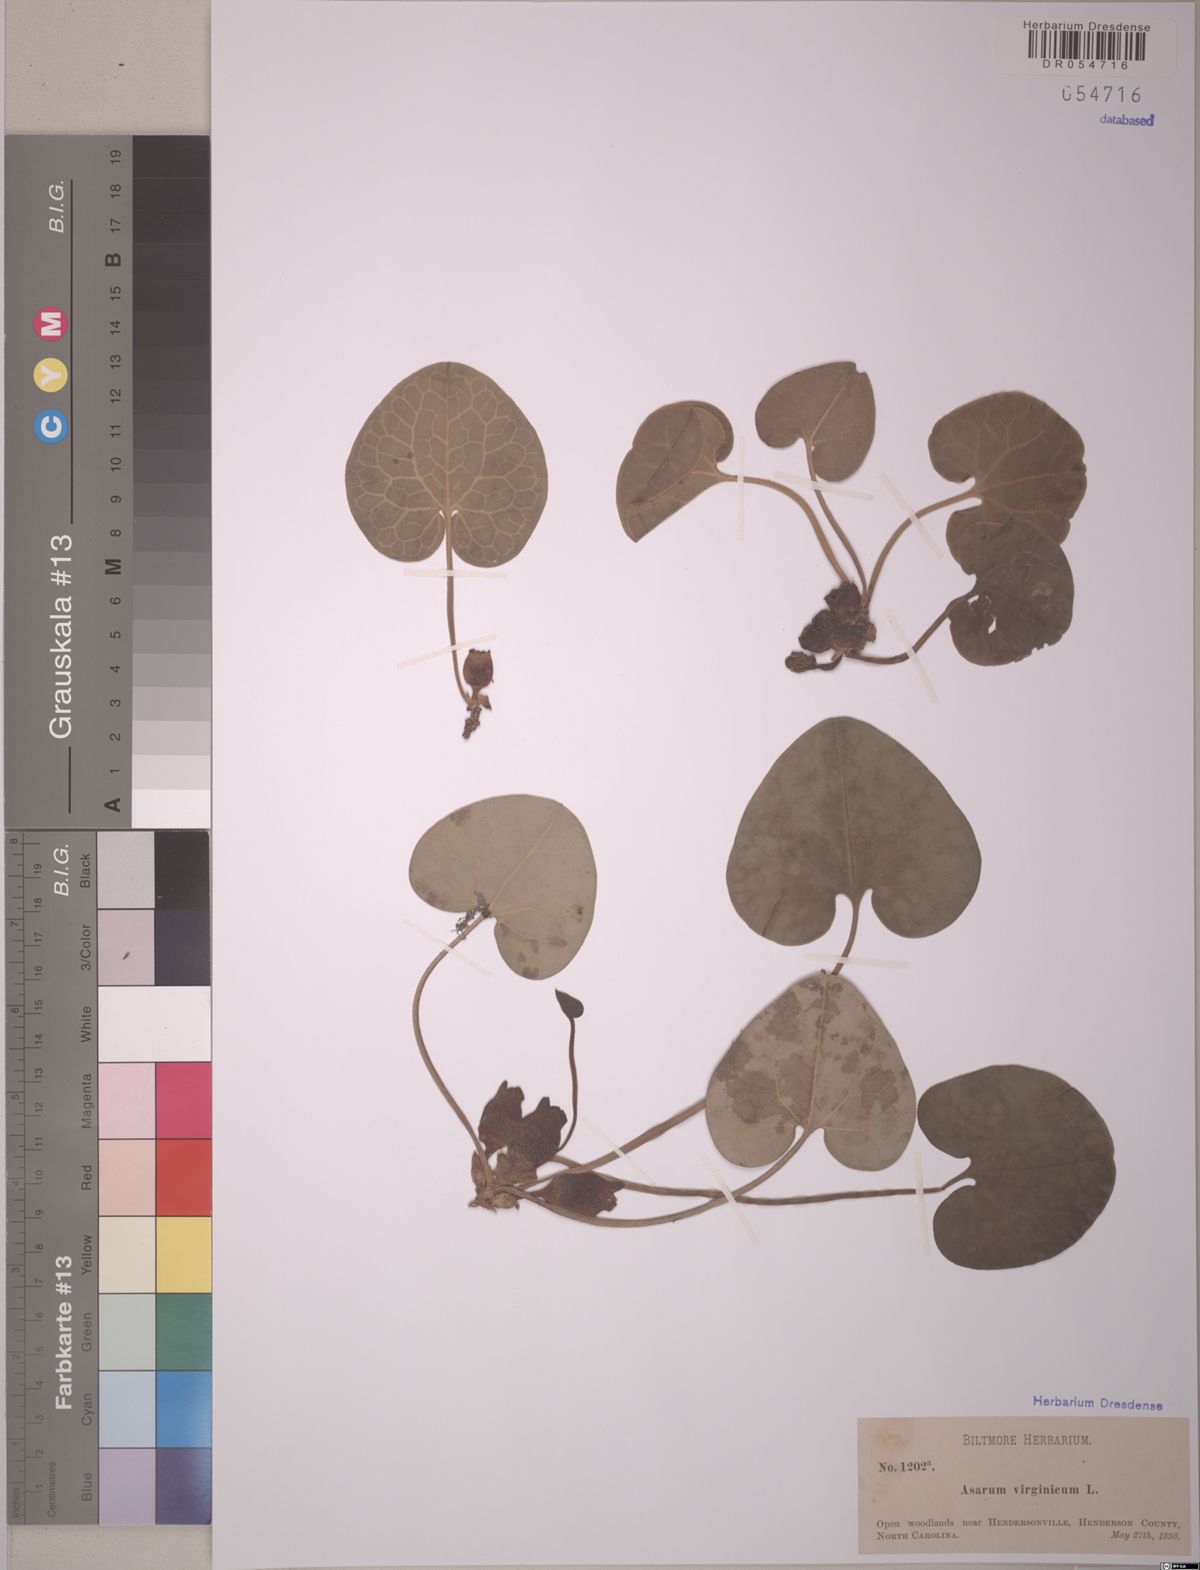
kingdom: Plantae
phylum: Tracheophyta
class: Magnoliopsida
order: Piperales
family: Aristolochiaceae
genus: Hexastylis
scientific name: Hexastylis virginica
